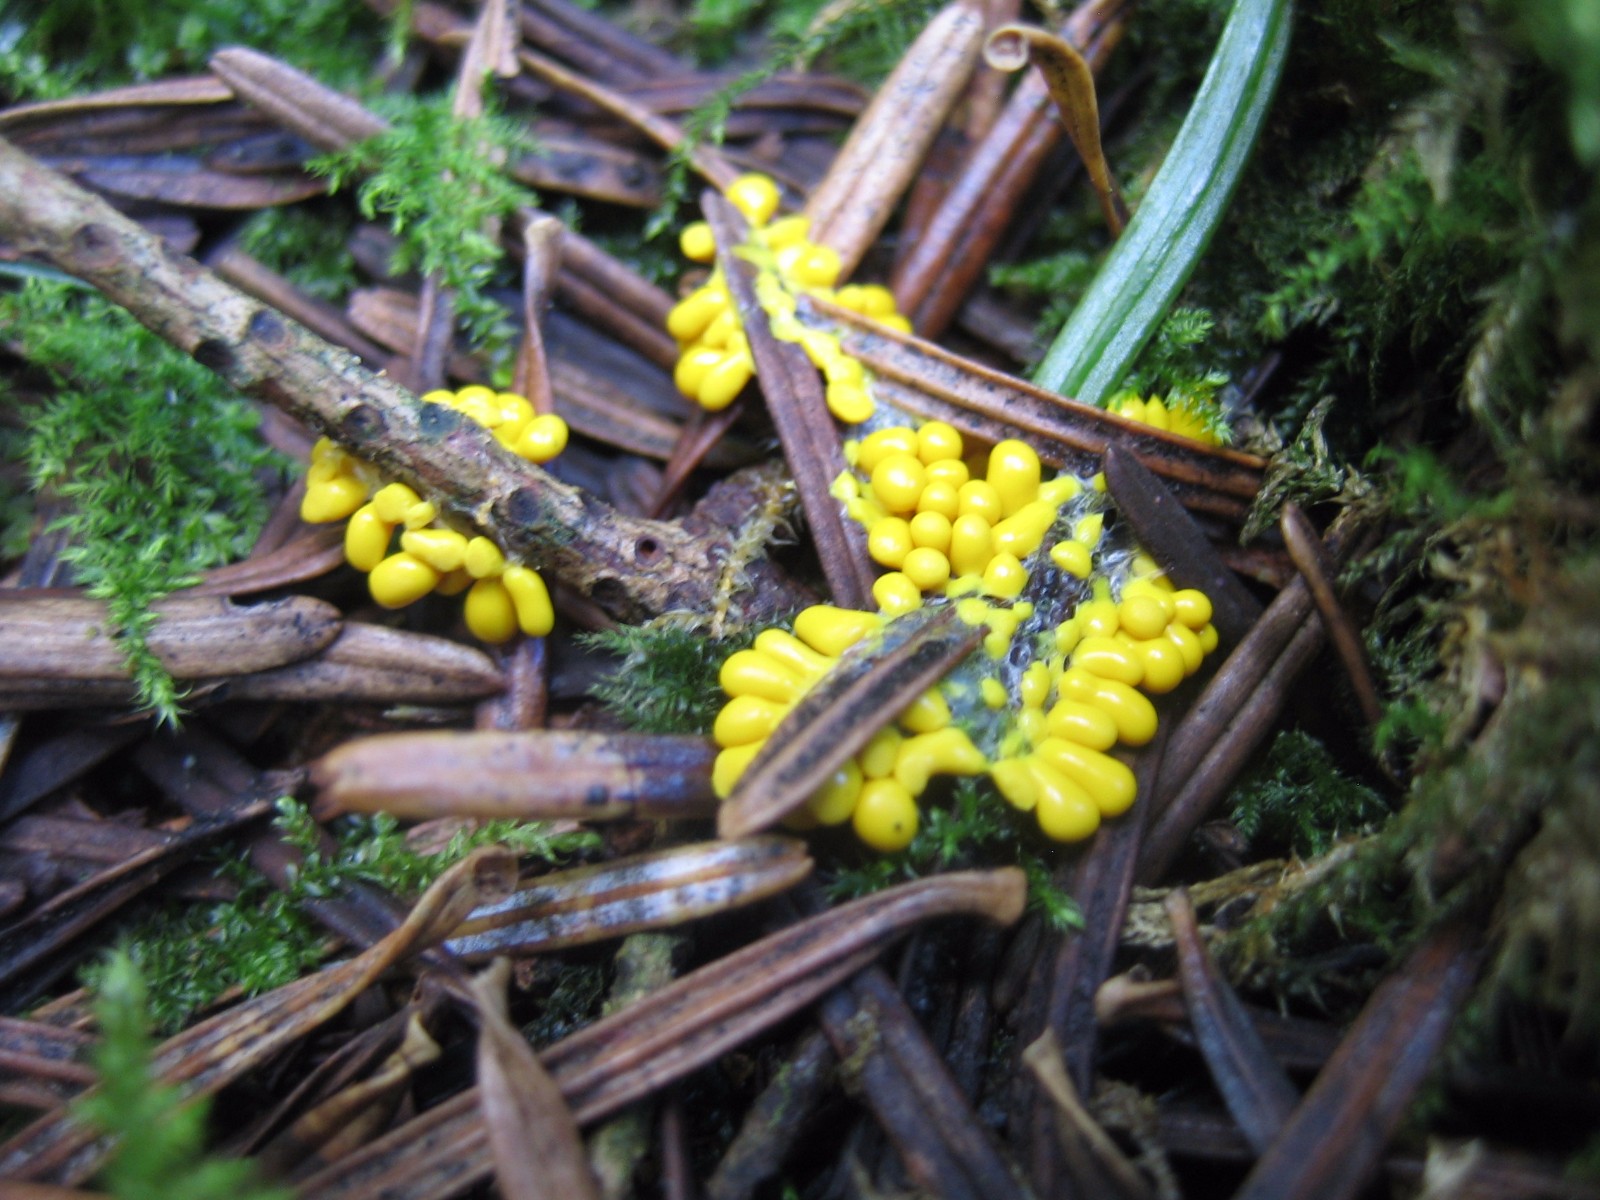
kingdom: Protozoa
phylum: Mycetozoa
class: Myxomycetes
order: Physarales
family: Physaraceae
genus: Leocarpus
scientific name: Leocarpus fragilis
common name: poleret glatfrø
